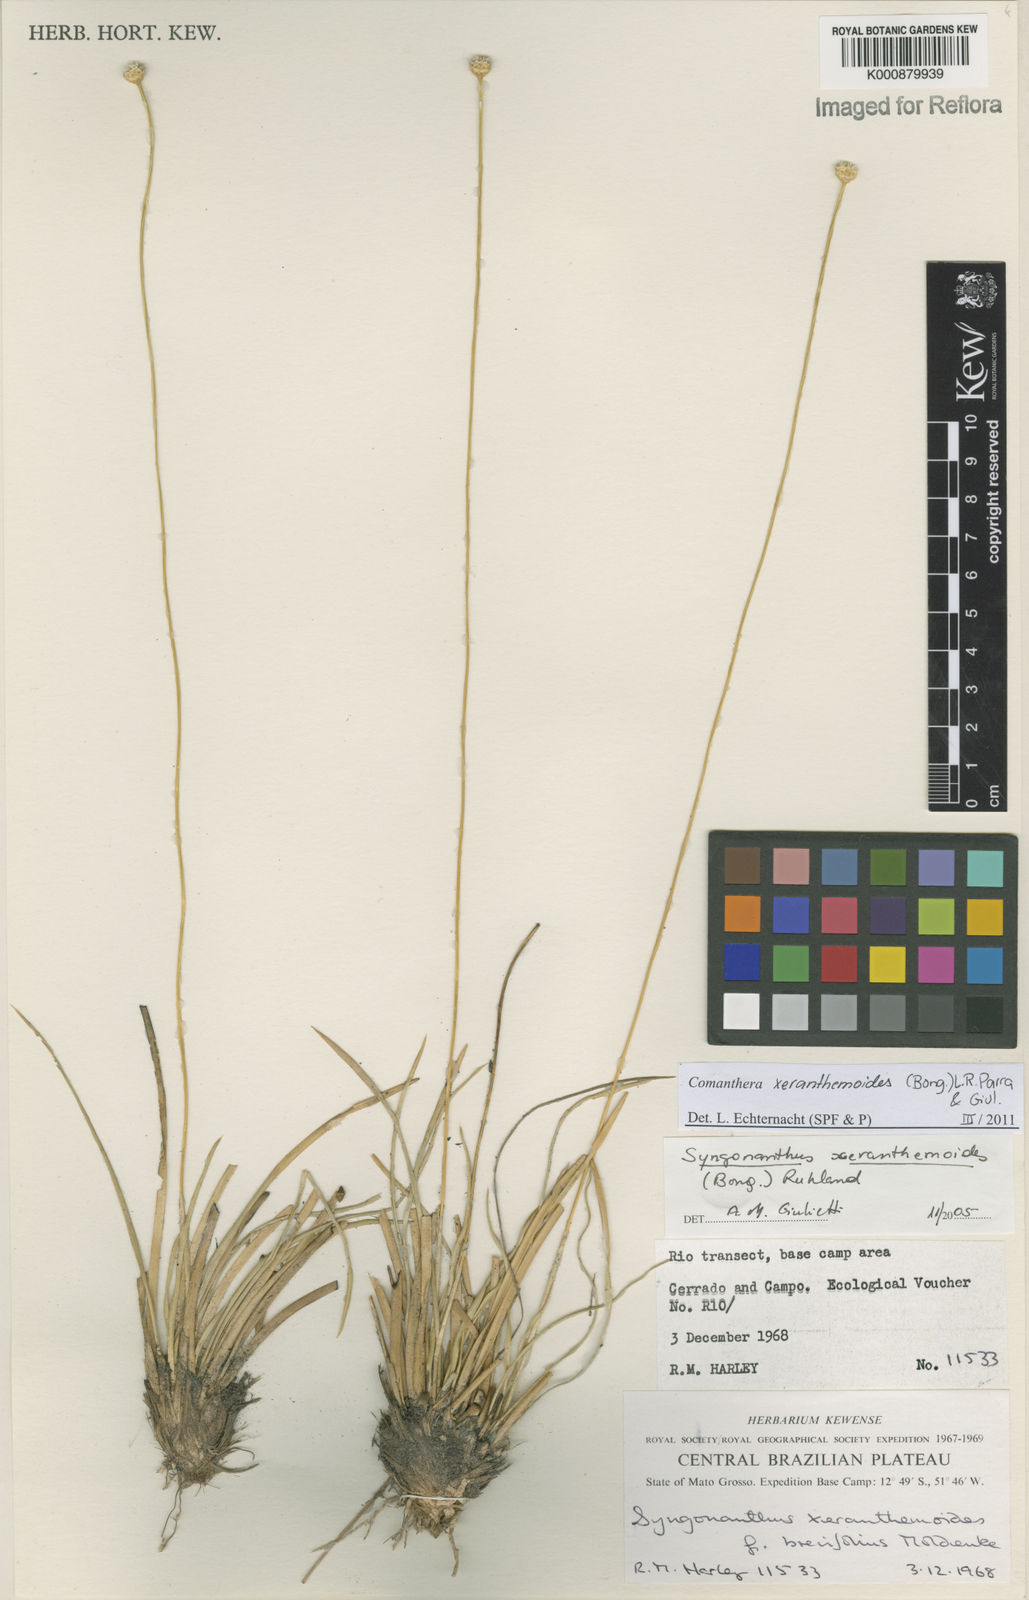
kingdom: Plantae
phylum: Tracheophyta
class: Liliopsida
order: Poales
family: Eriocaulaceae
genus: Comanthera
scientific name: Comanthera
